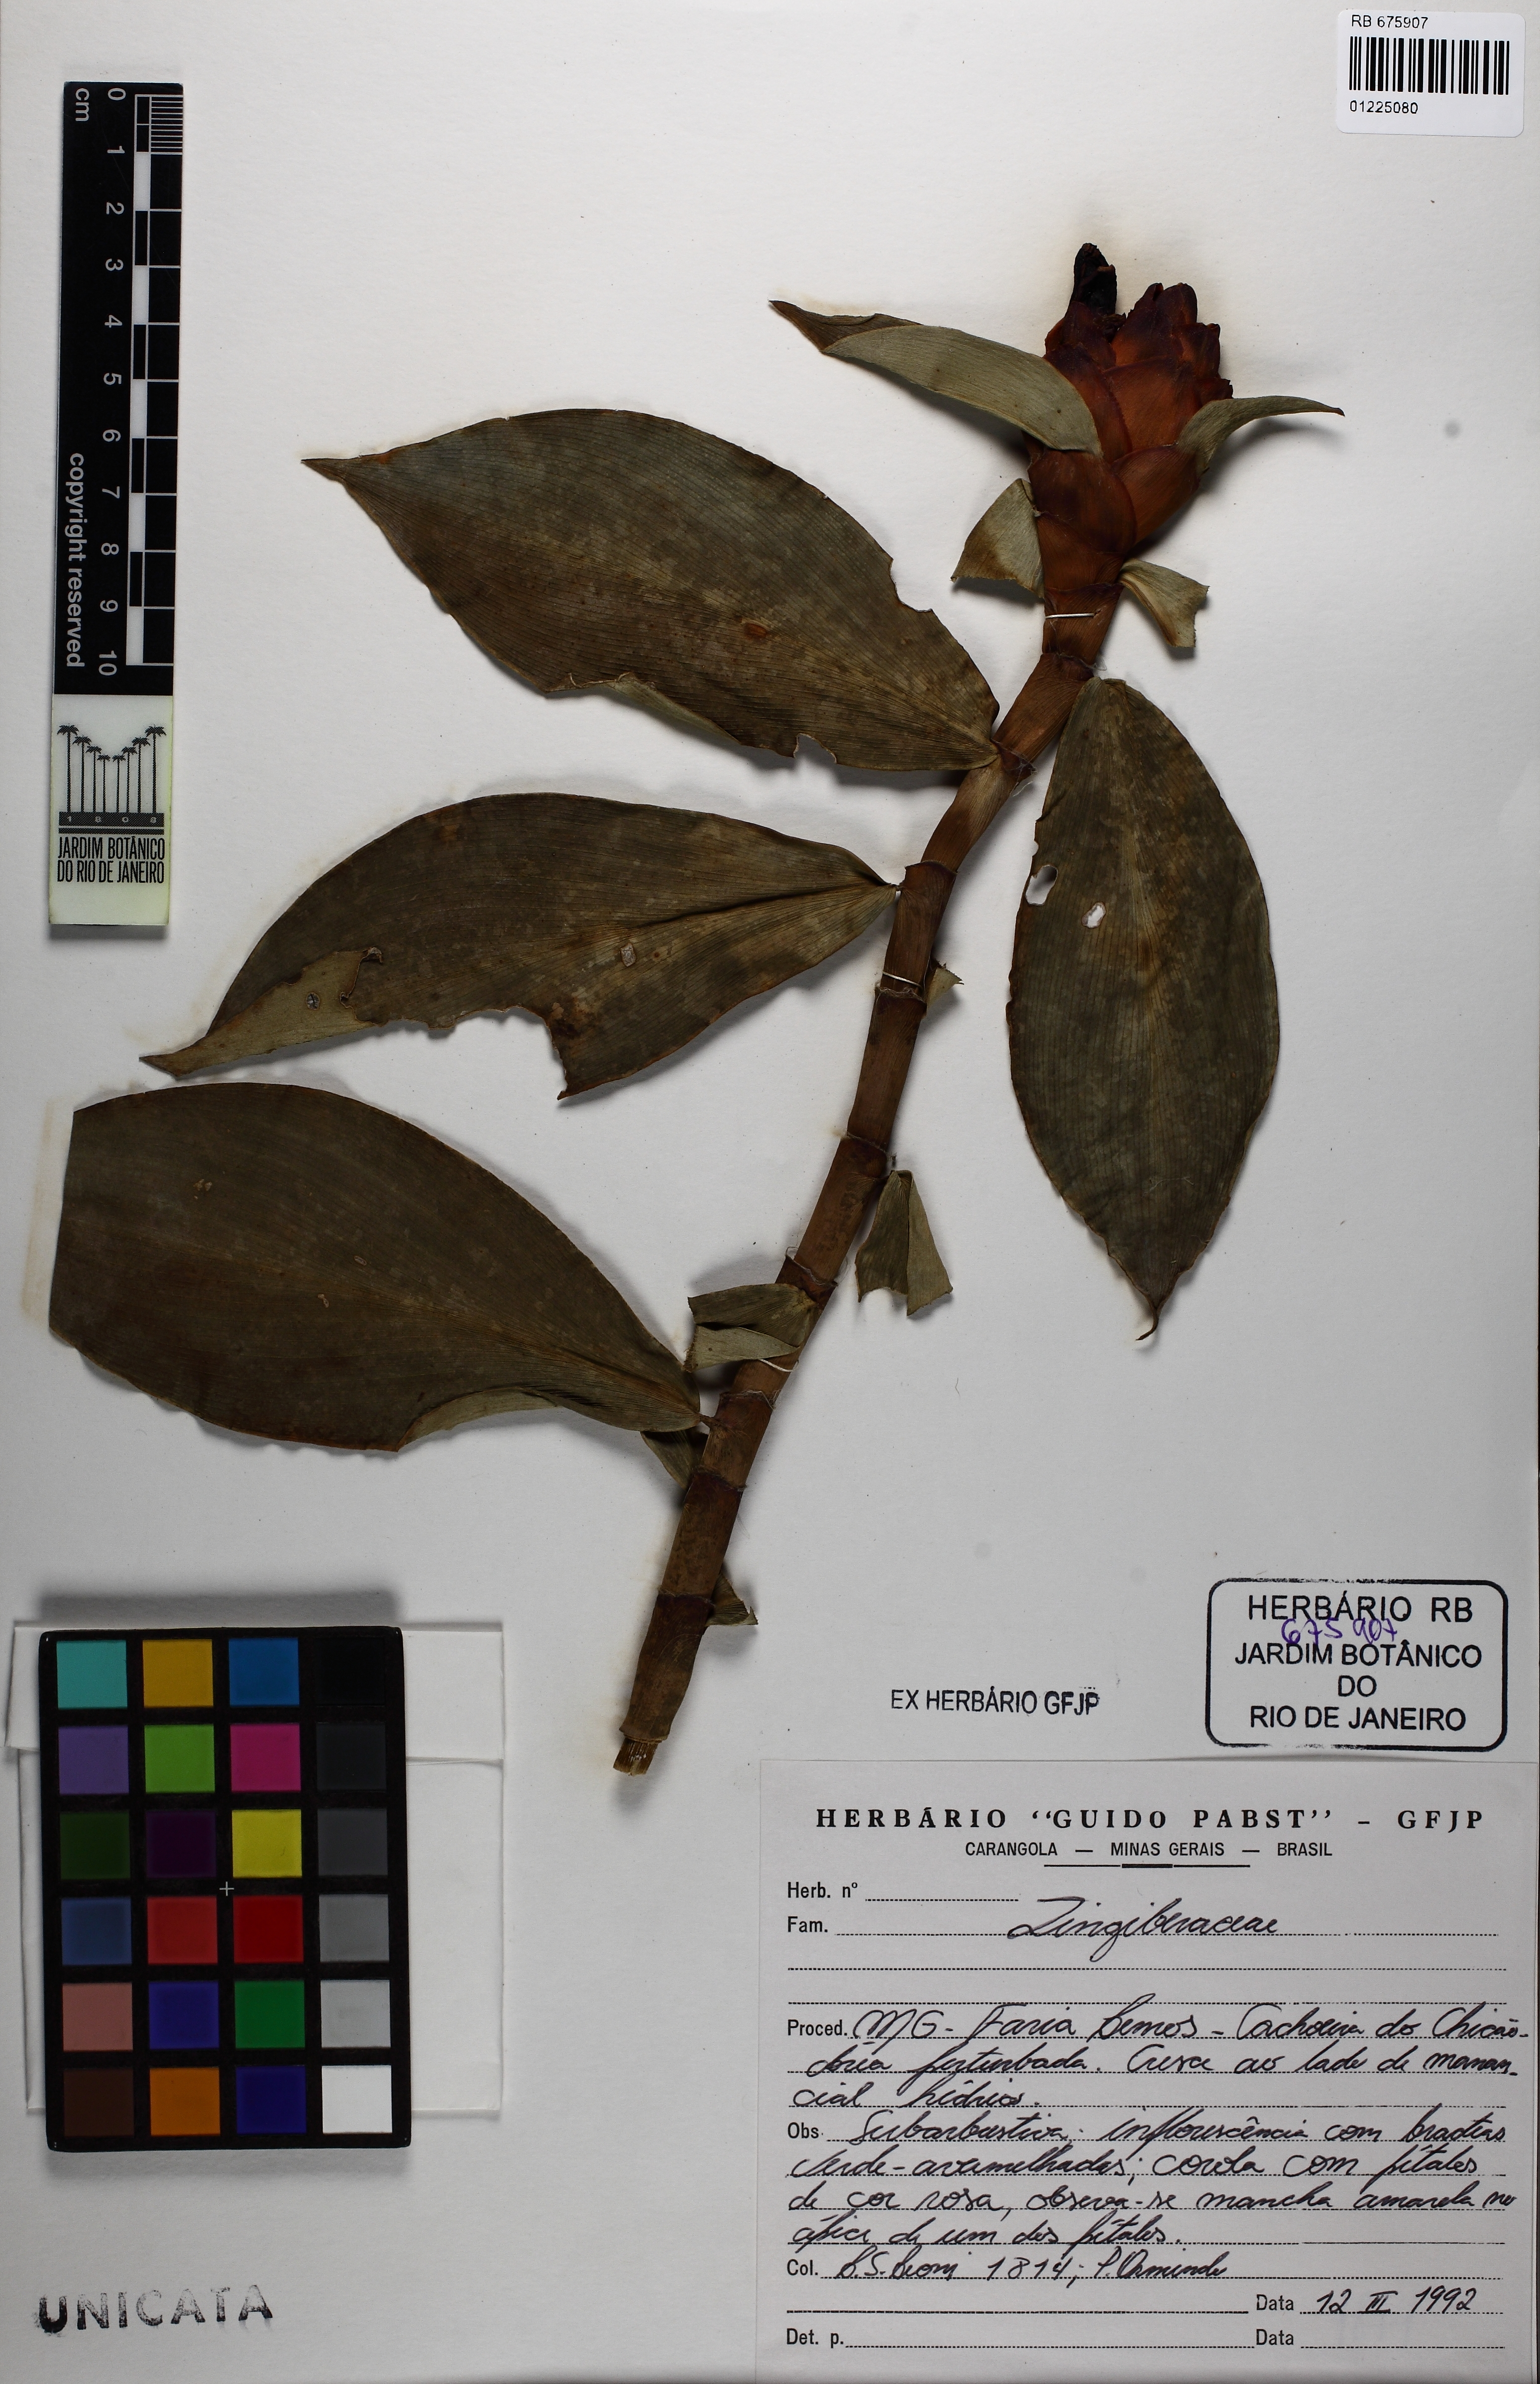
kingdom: Plantae
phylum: Tracheophyta
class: Liliopsida
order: Zingiberales
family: Zingiberaceae
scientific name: Zingiberaceae
